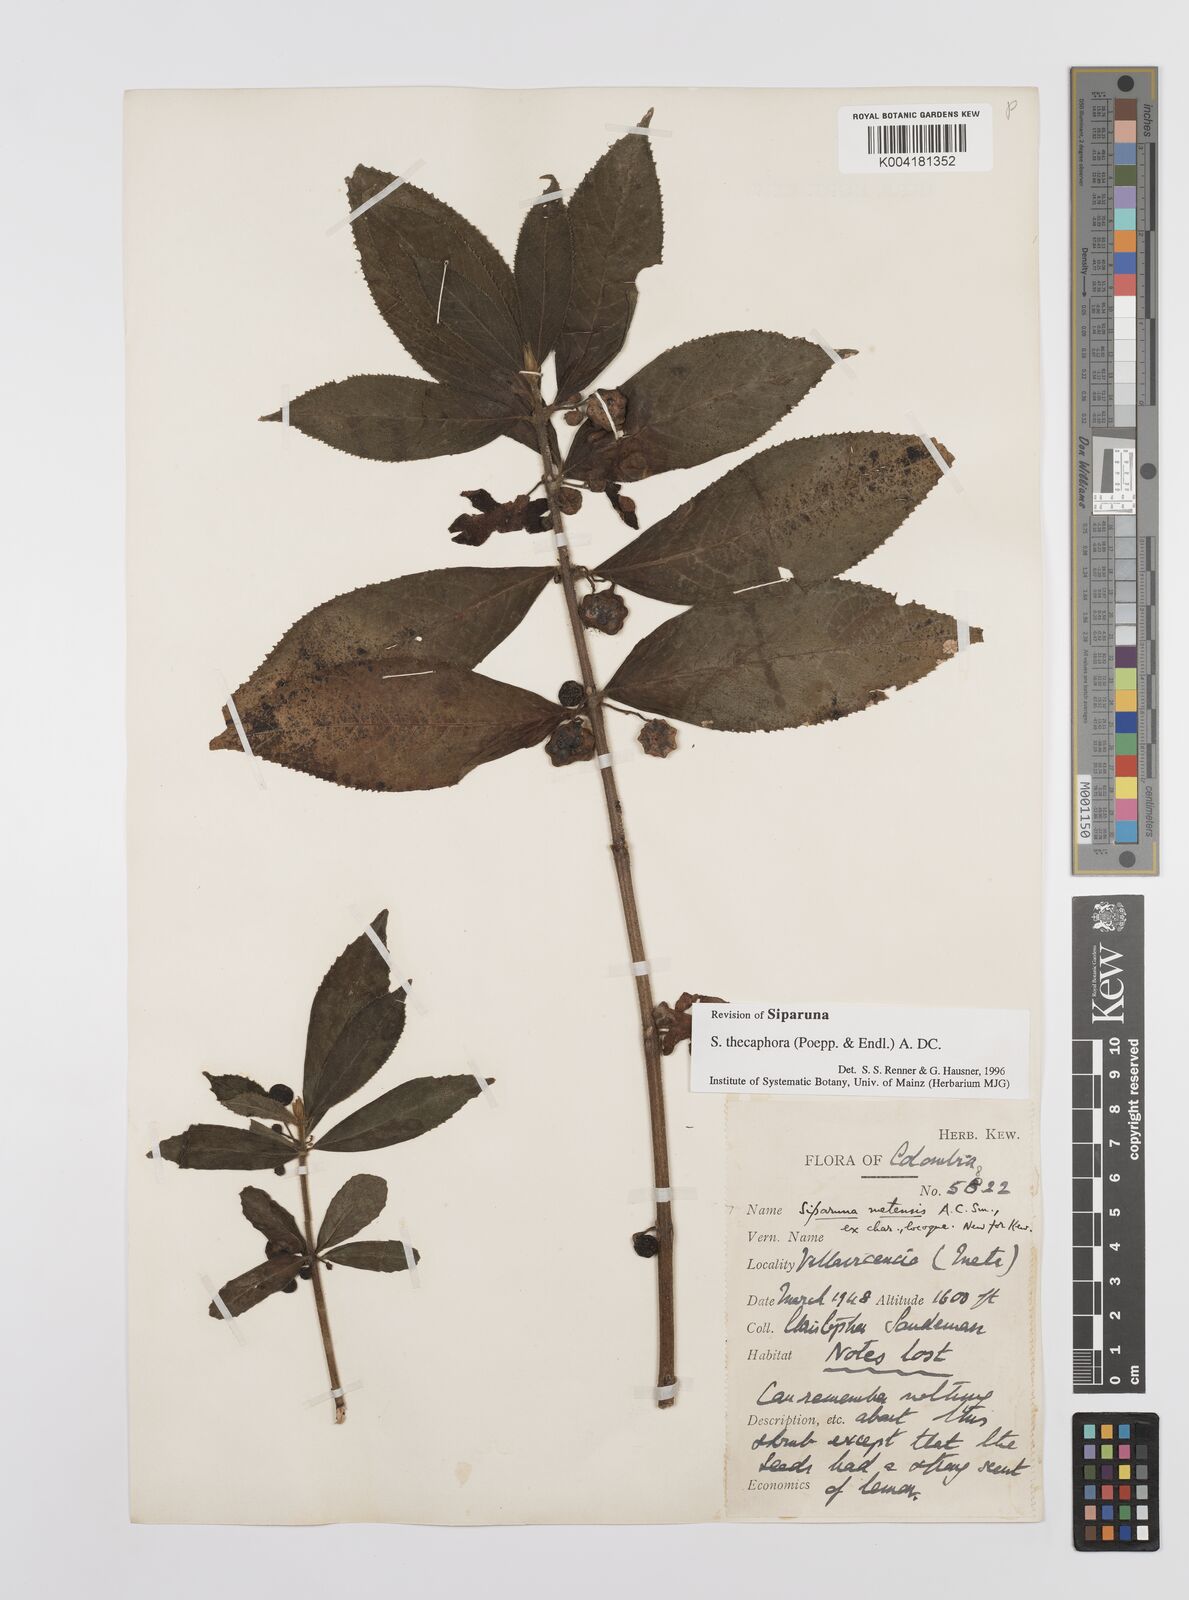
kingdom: Plantae
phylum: Tracheophyta
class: Magnoliopsida
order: Laurales
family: Siparunaceae
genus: Siparuna
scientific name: Siparuna thecaphora
